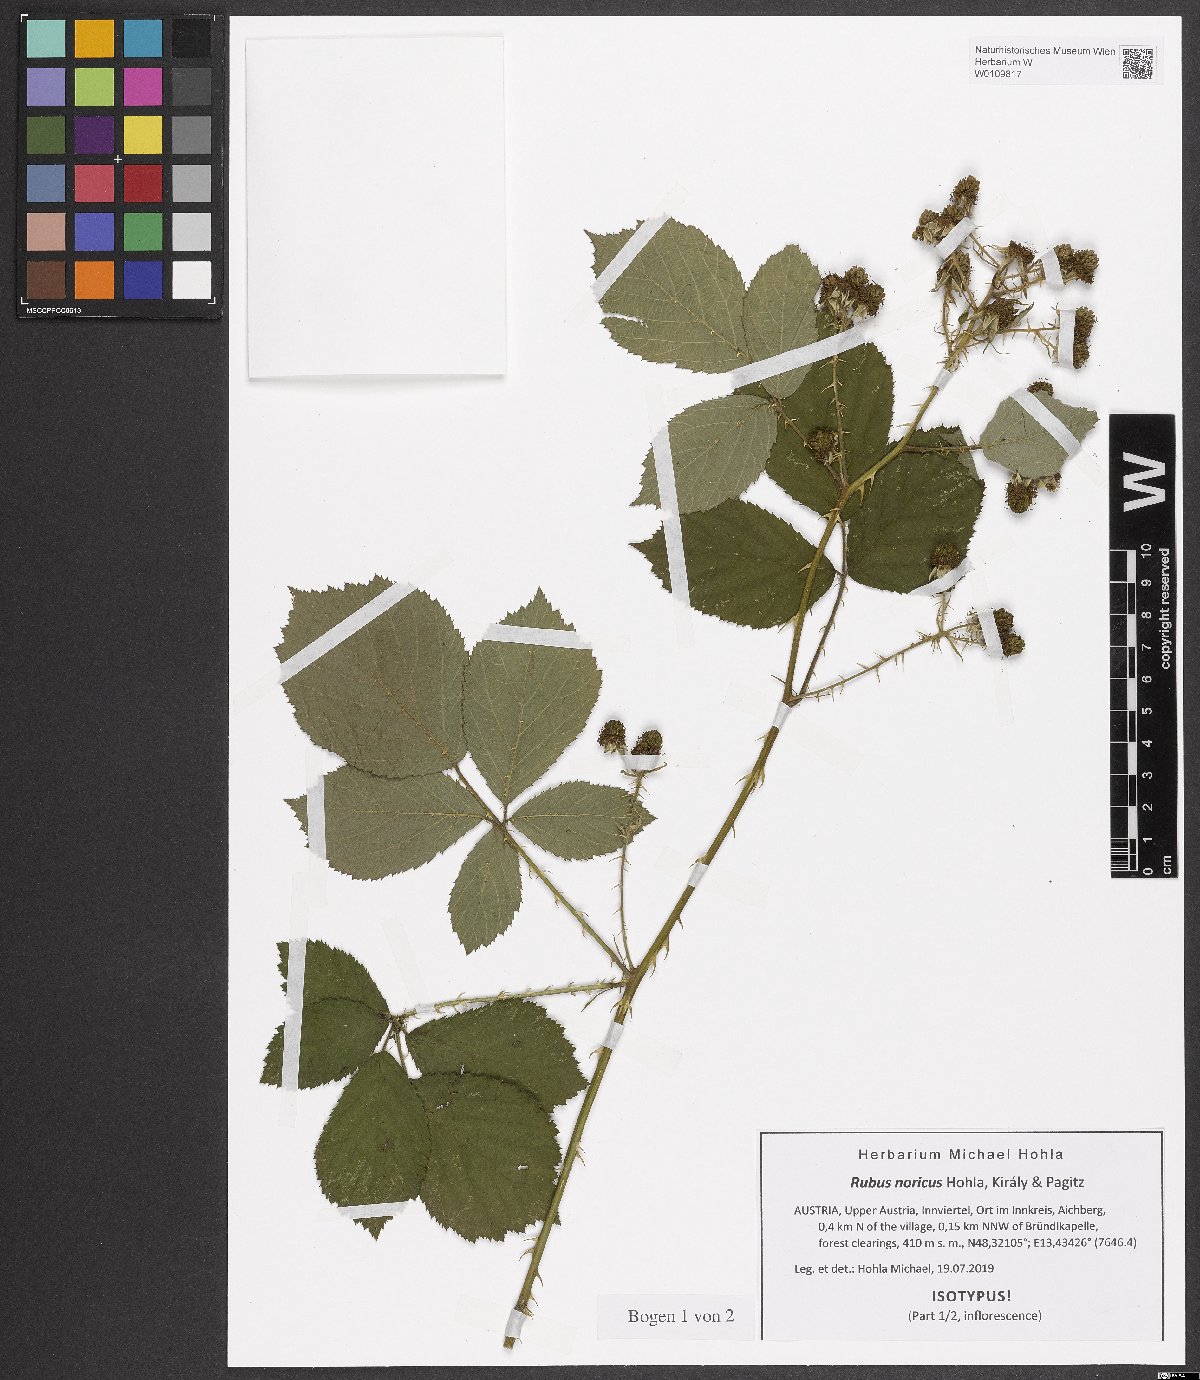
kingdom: Plantae
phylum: Tracheophyta
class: Magnoliopsida
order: Rosales
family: Rosaceae
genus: Rubus
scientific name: Rubus noricus
